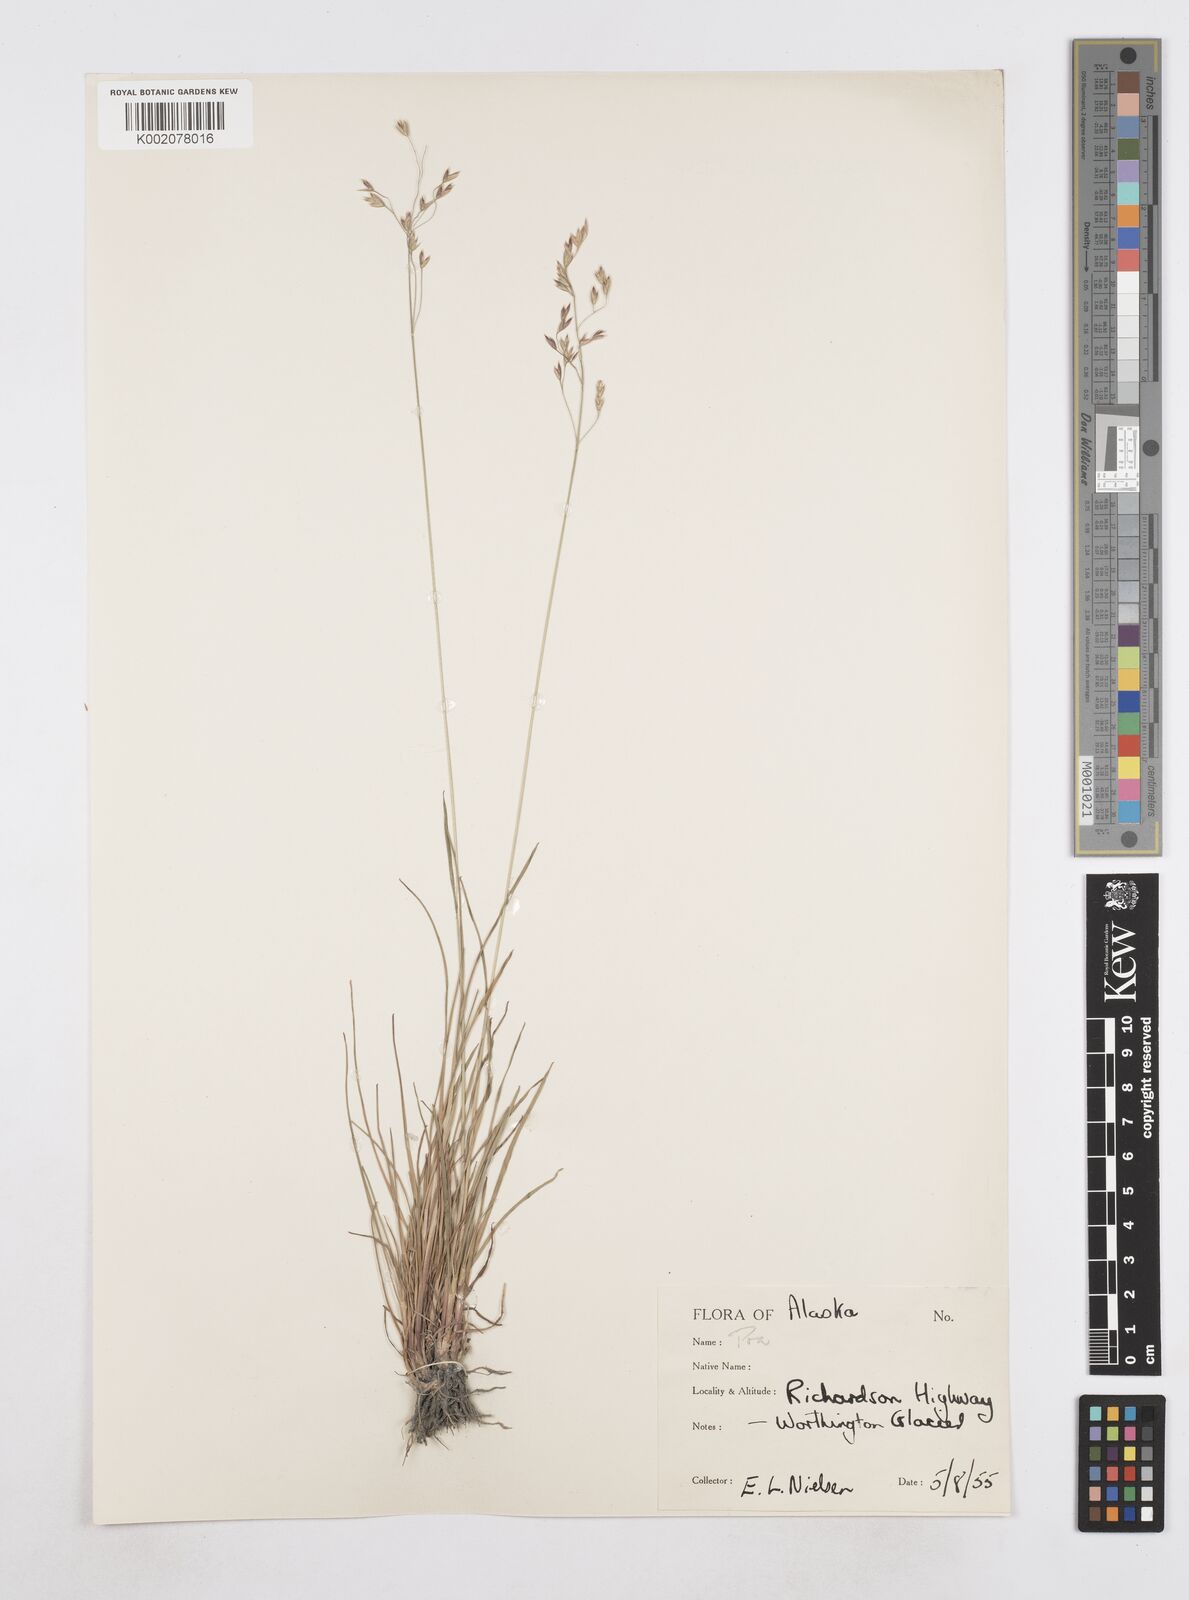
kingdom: Plantae
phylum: Tracheophyta
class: Liliopsida
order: Poales
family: Poaceae
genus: Poa
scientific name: Poa
